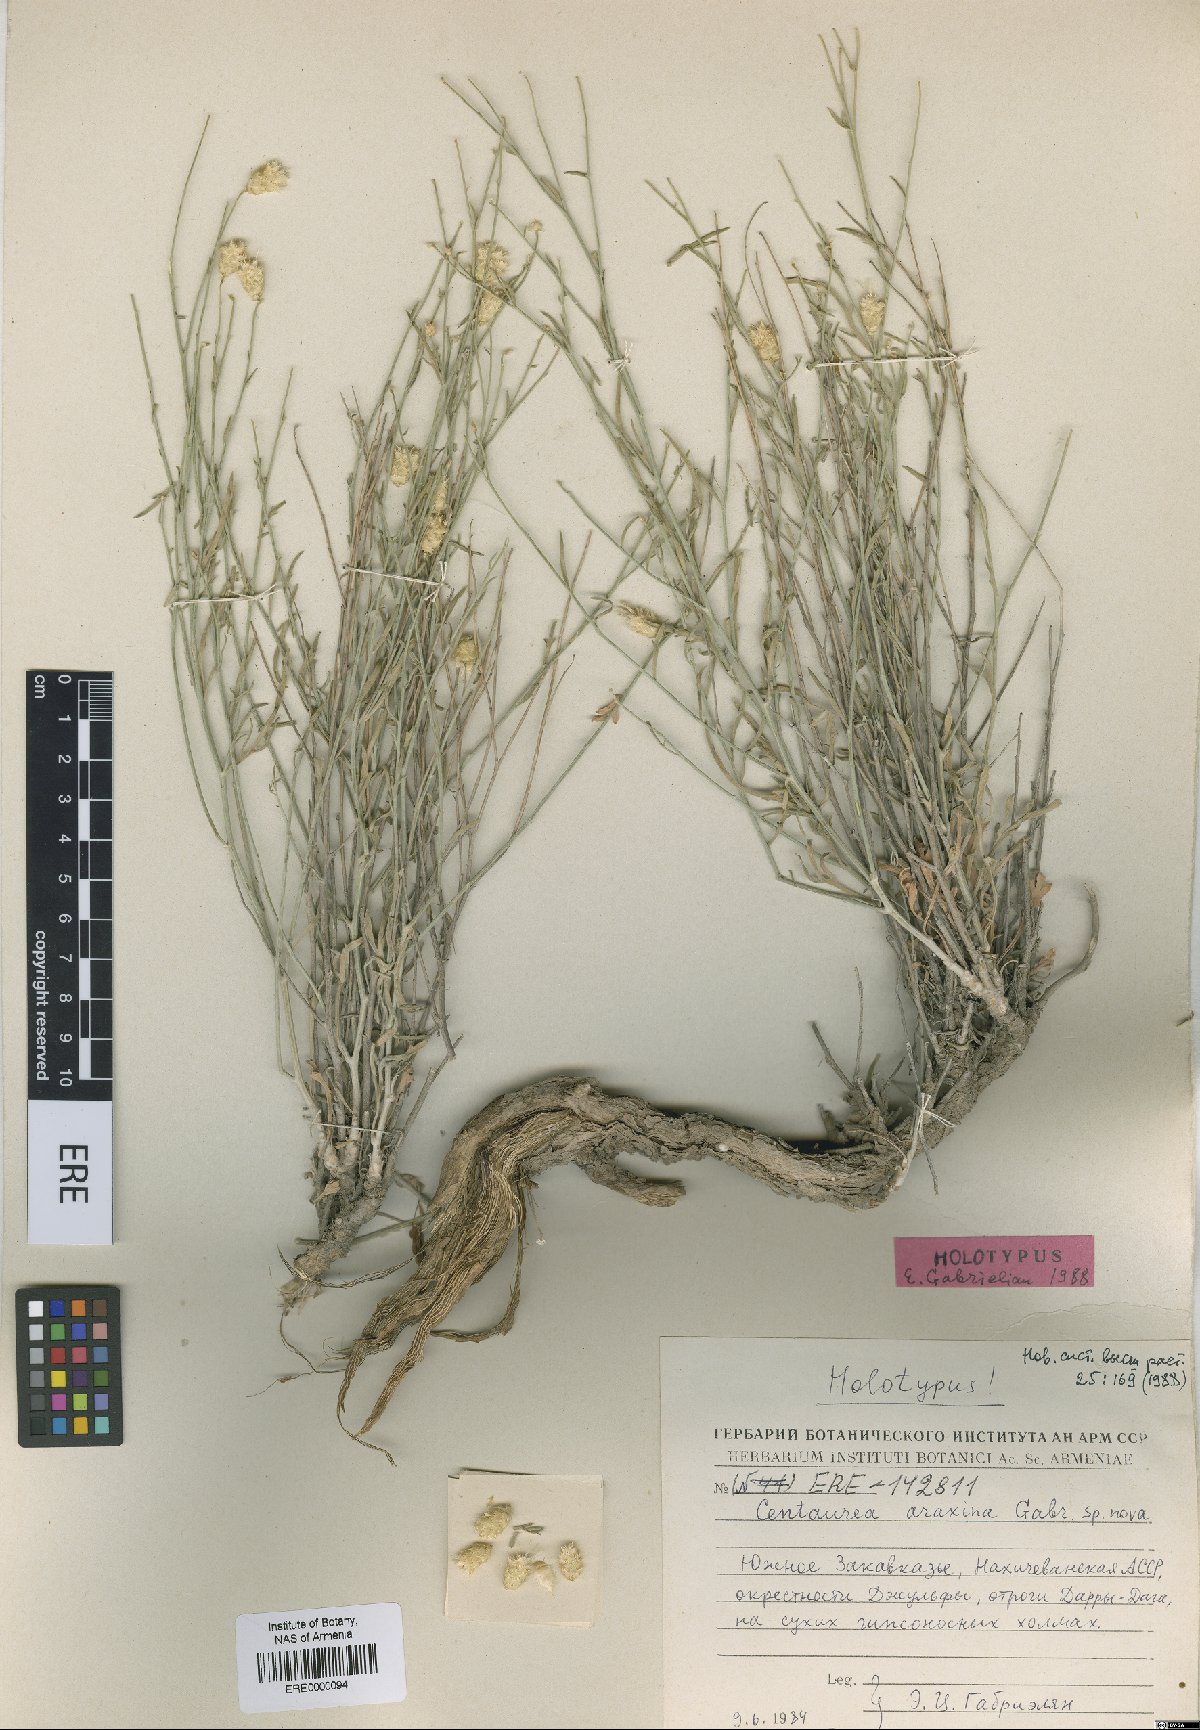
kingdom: Plantae
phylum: Tracheophyta
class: Magnoliopsida
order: Asterales
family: Asteraceae
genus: Psephellus
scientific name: Psephellus araxinus
